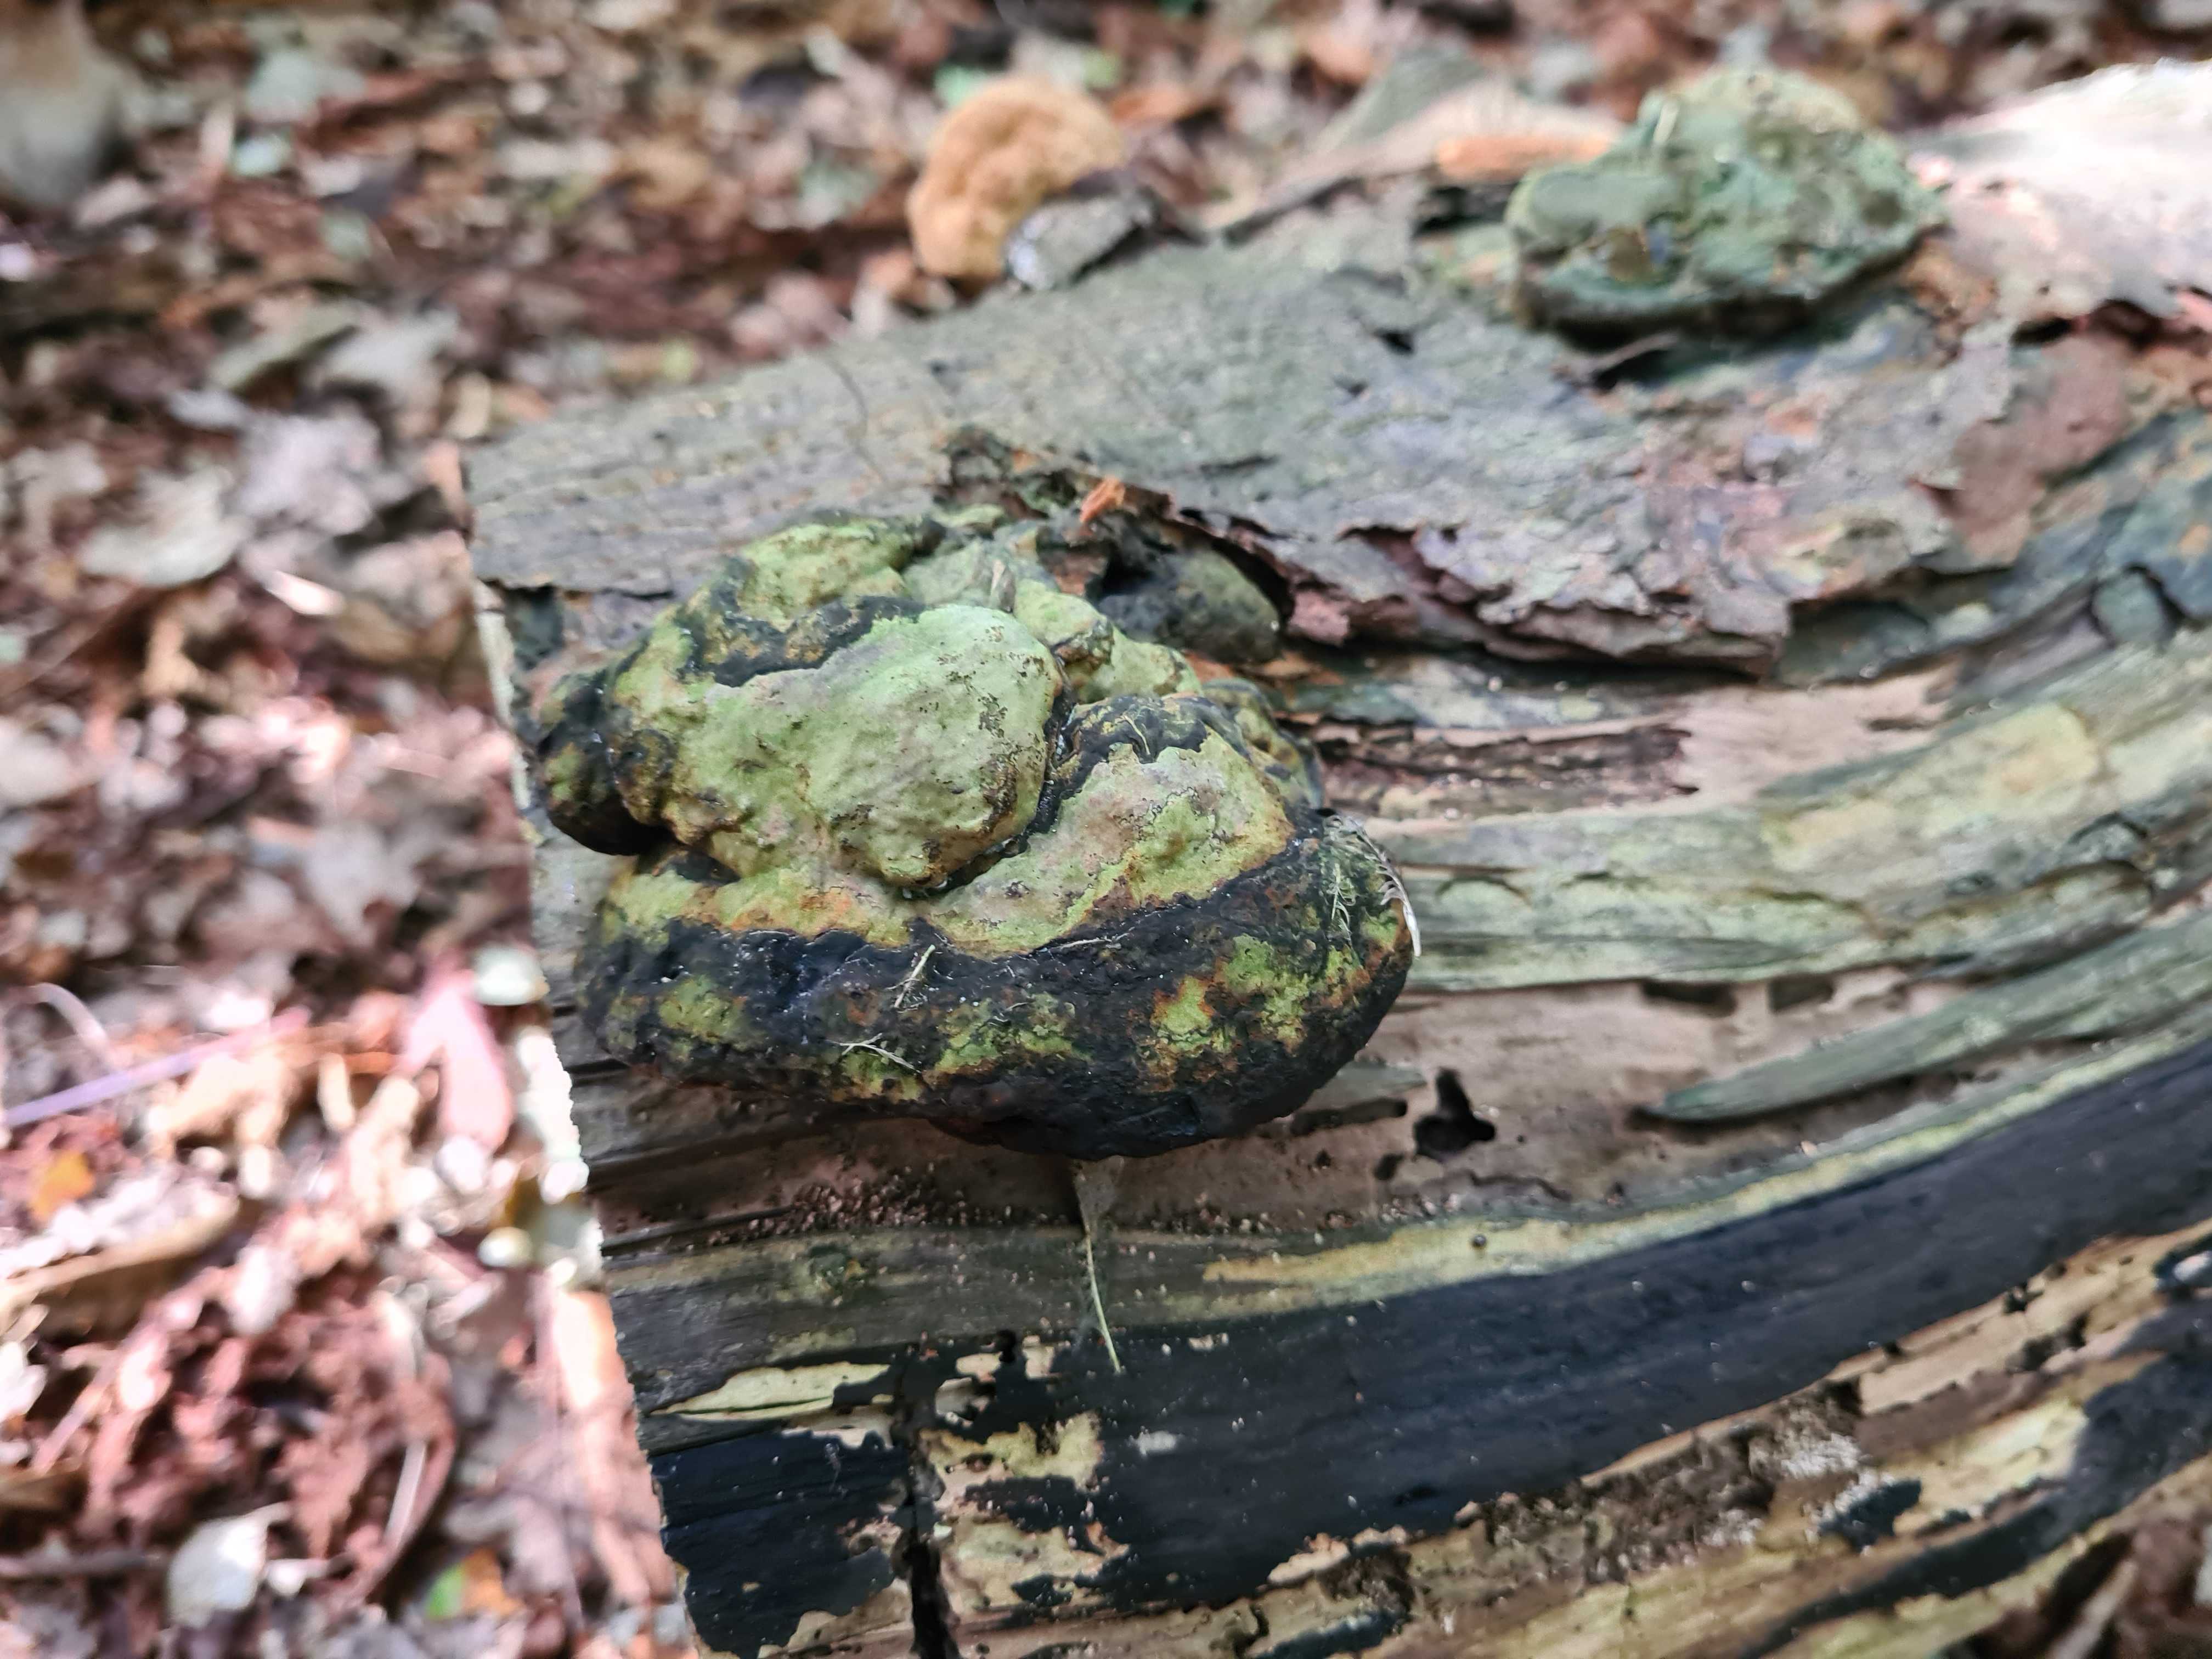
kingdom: Fungi
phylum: Basidiomycota
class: Agaricomycetes
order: Polyporales
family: Polyporaceae
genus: Fomes
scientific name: Fomes fomentarius
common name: tøndersvamp
